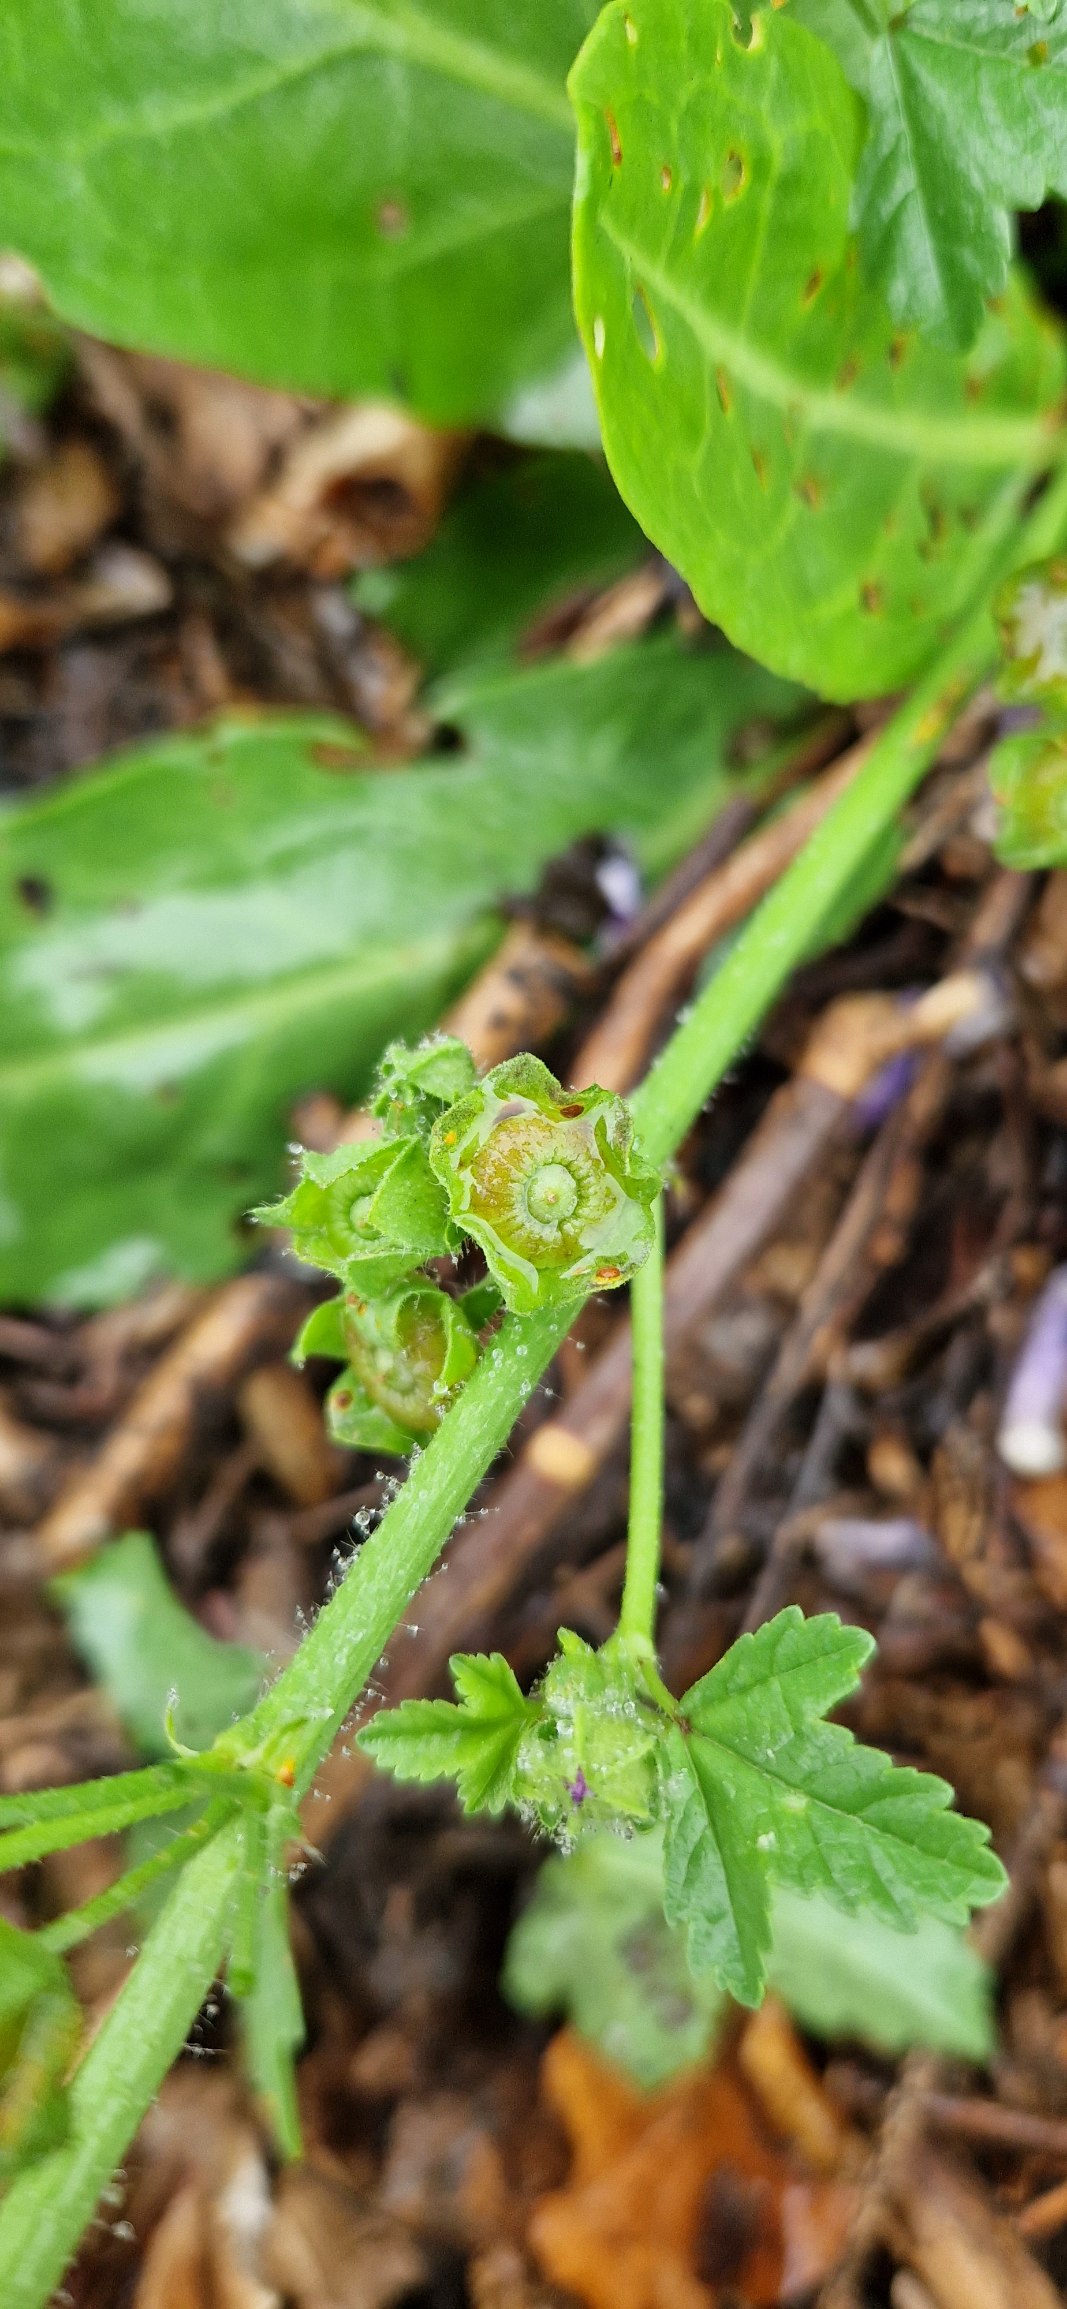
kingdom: Plantae
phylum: Tracheophyta
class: Magnoliopsida
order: Malvales
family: Malvaceae
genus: Malva
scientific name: Malva sylvestris
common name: Almindelig katost
